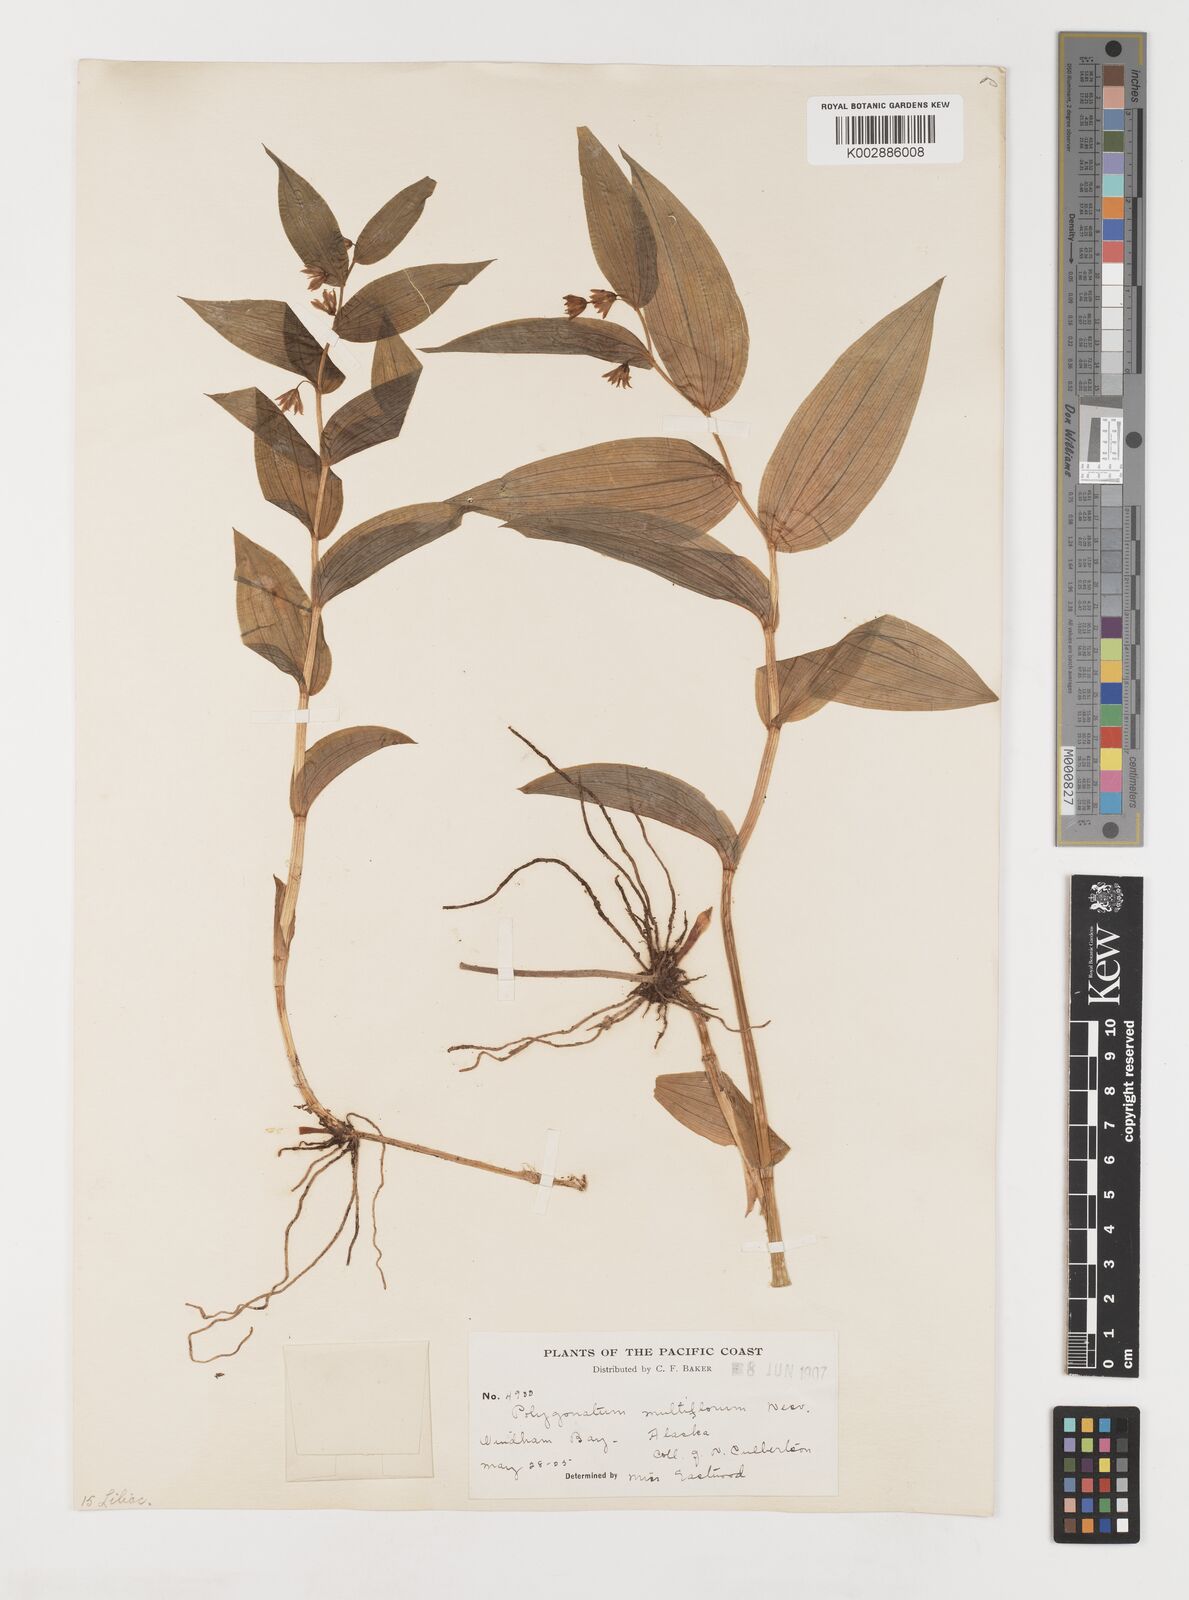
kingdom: Plantae
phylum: Tracheophyta
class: Liliopsida
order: Liliales
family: Liliaceae
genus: Streptopus
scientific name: Streptopus lanceolatus
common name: Rose mandarin
